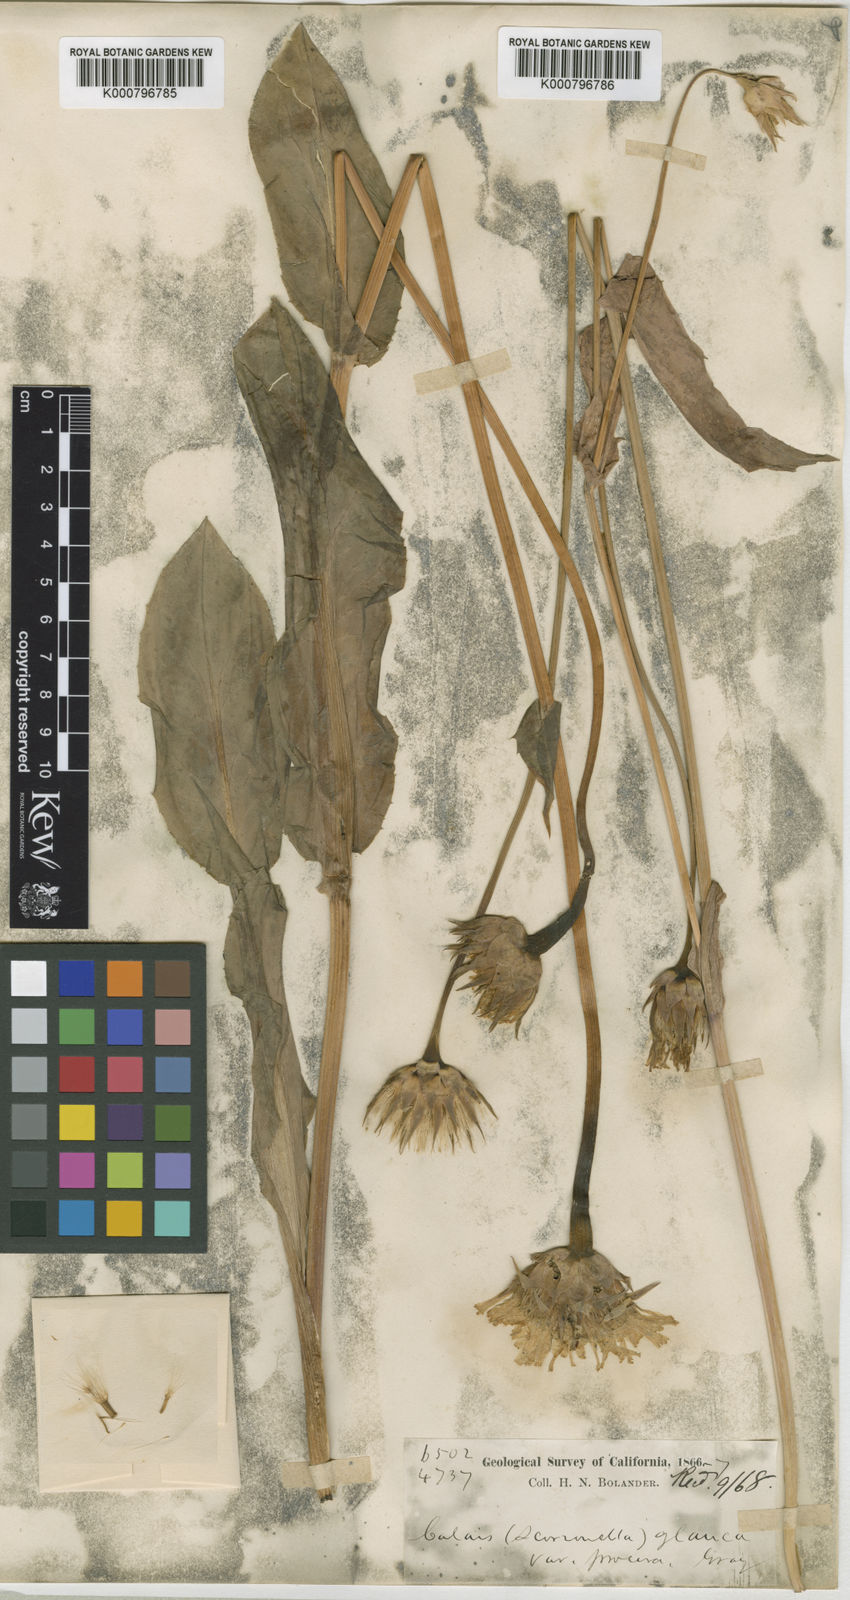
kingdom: Plantae
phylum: Tracheophyta
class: Magnoliopsida
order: Asterales
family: Asteraceae
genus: Microseris
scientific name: Microseris laciniata
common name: Cut-leaf microseris
